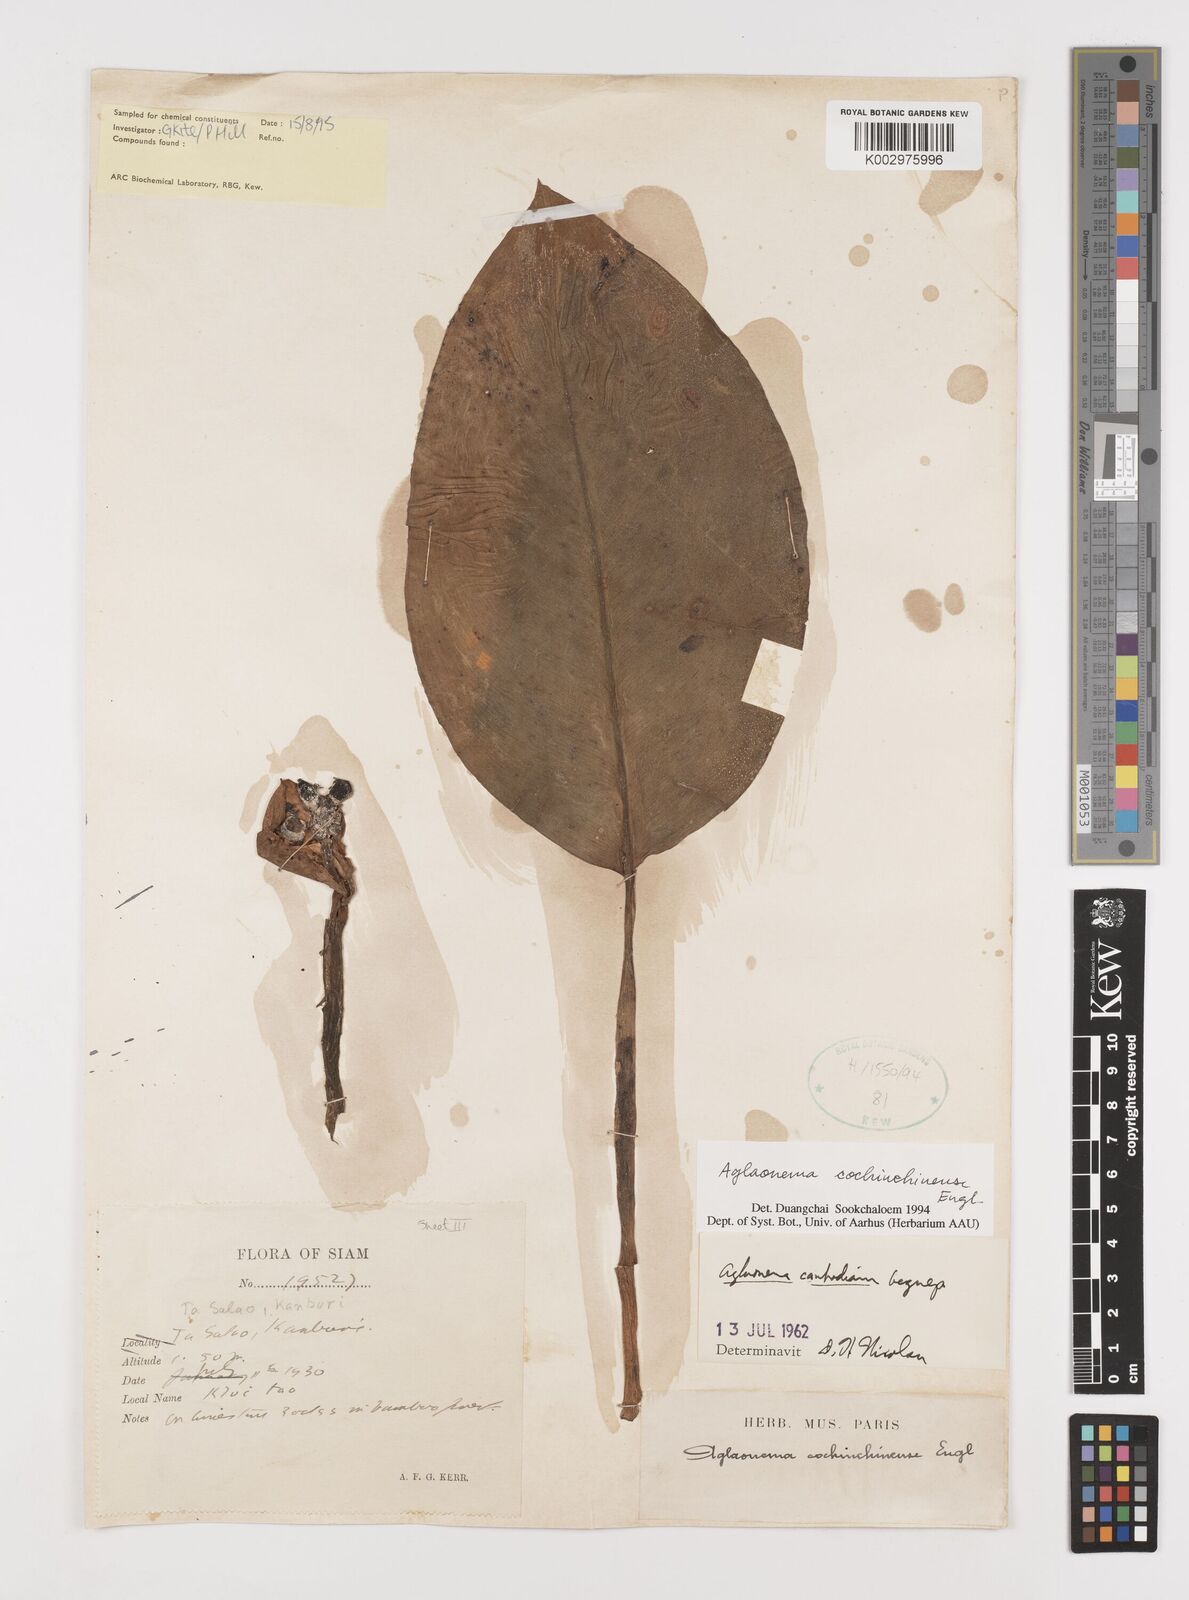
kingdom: Plantae
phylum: Tracheophyta
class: Liliopsida
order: Alismatales
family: Araceae
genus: Aglaonema
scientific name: Aglaonema cochinchinense
